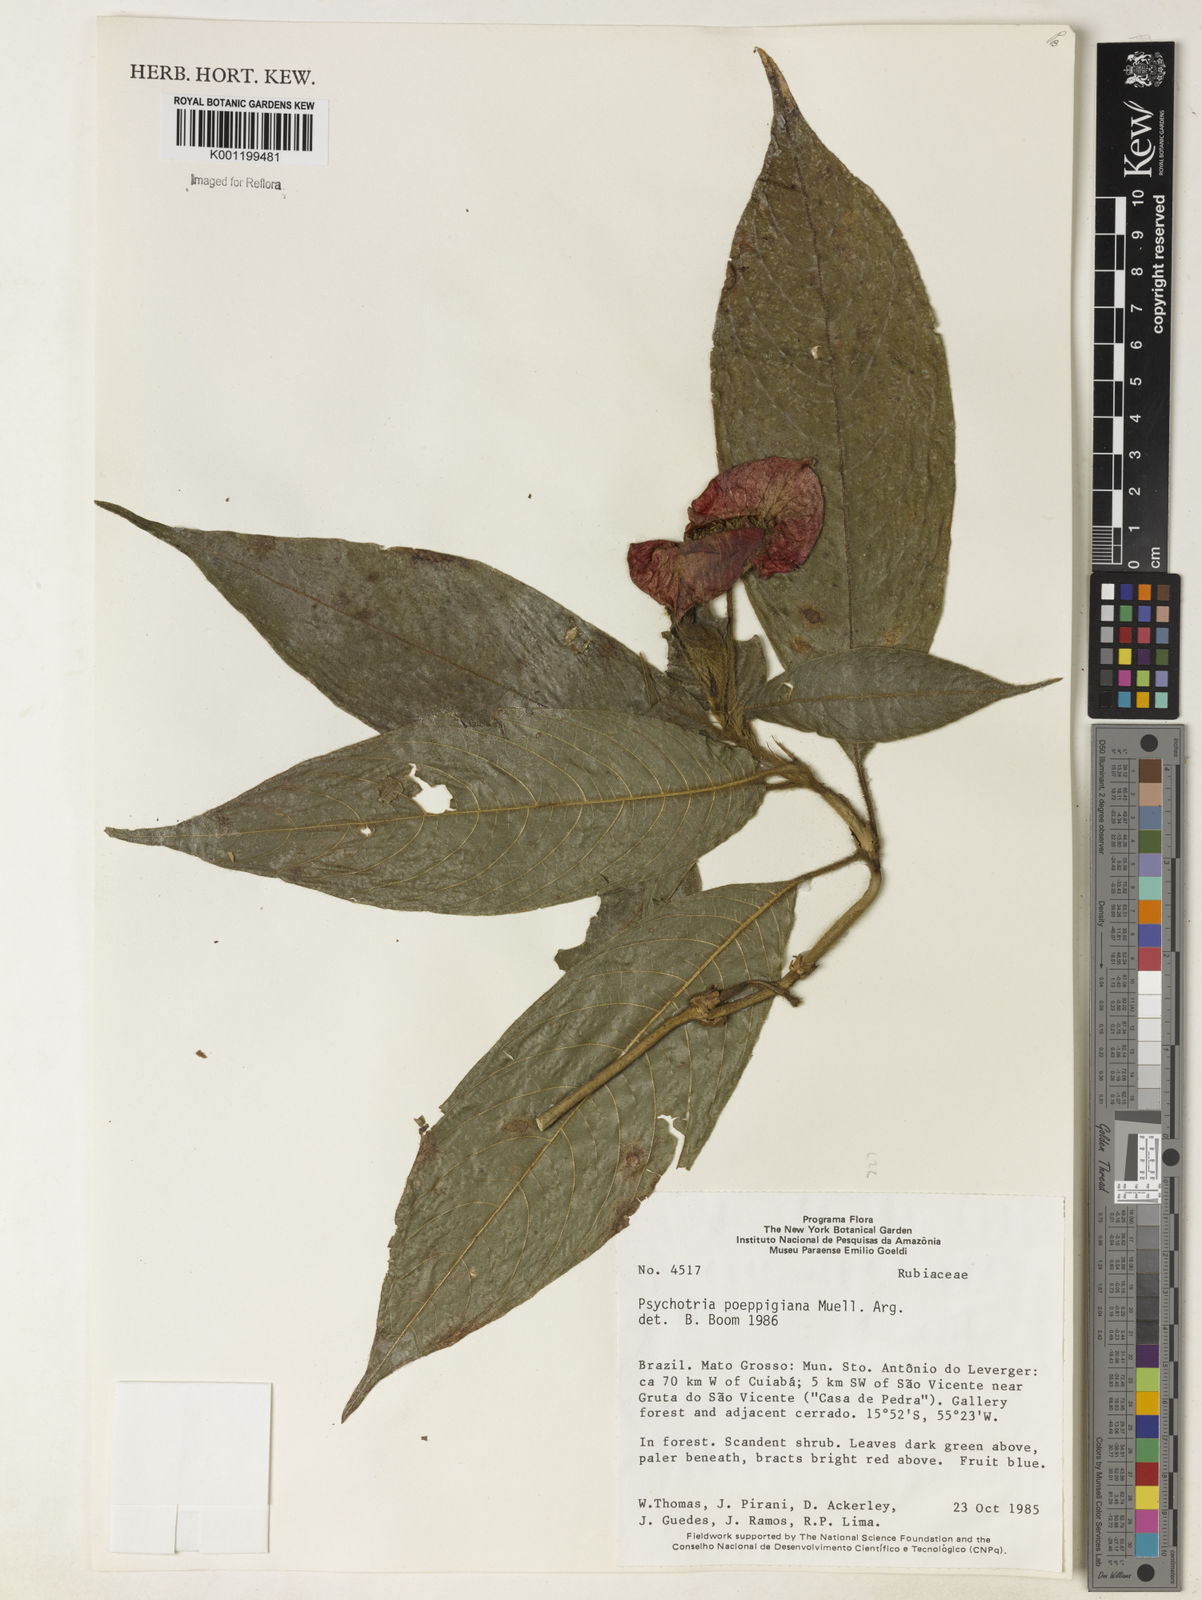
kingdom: Plantae
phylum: Tracheophyta
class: Magnoliopsida
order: Gentianales
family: Rubiaceae
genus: Psychotria
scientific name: Psychotria
